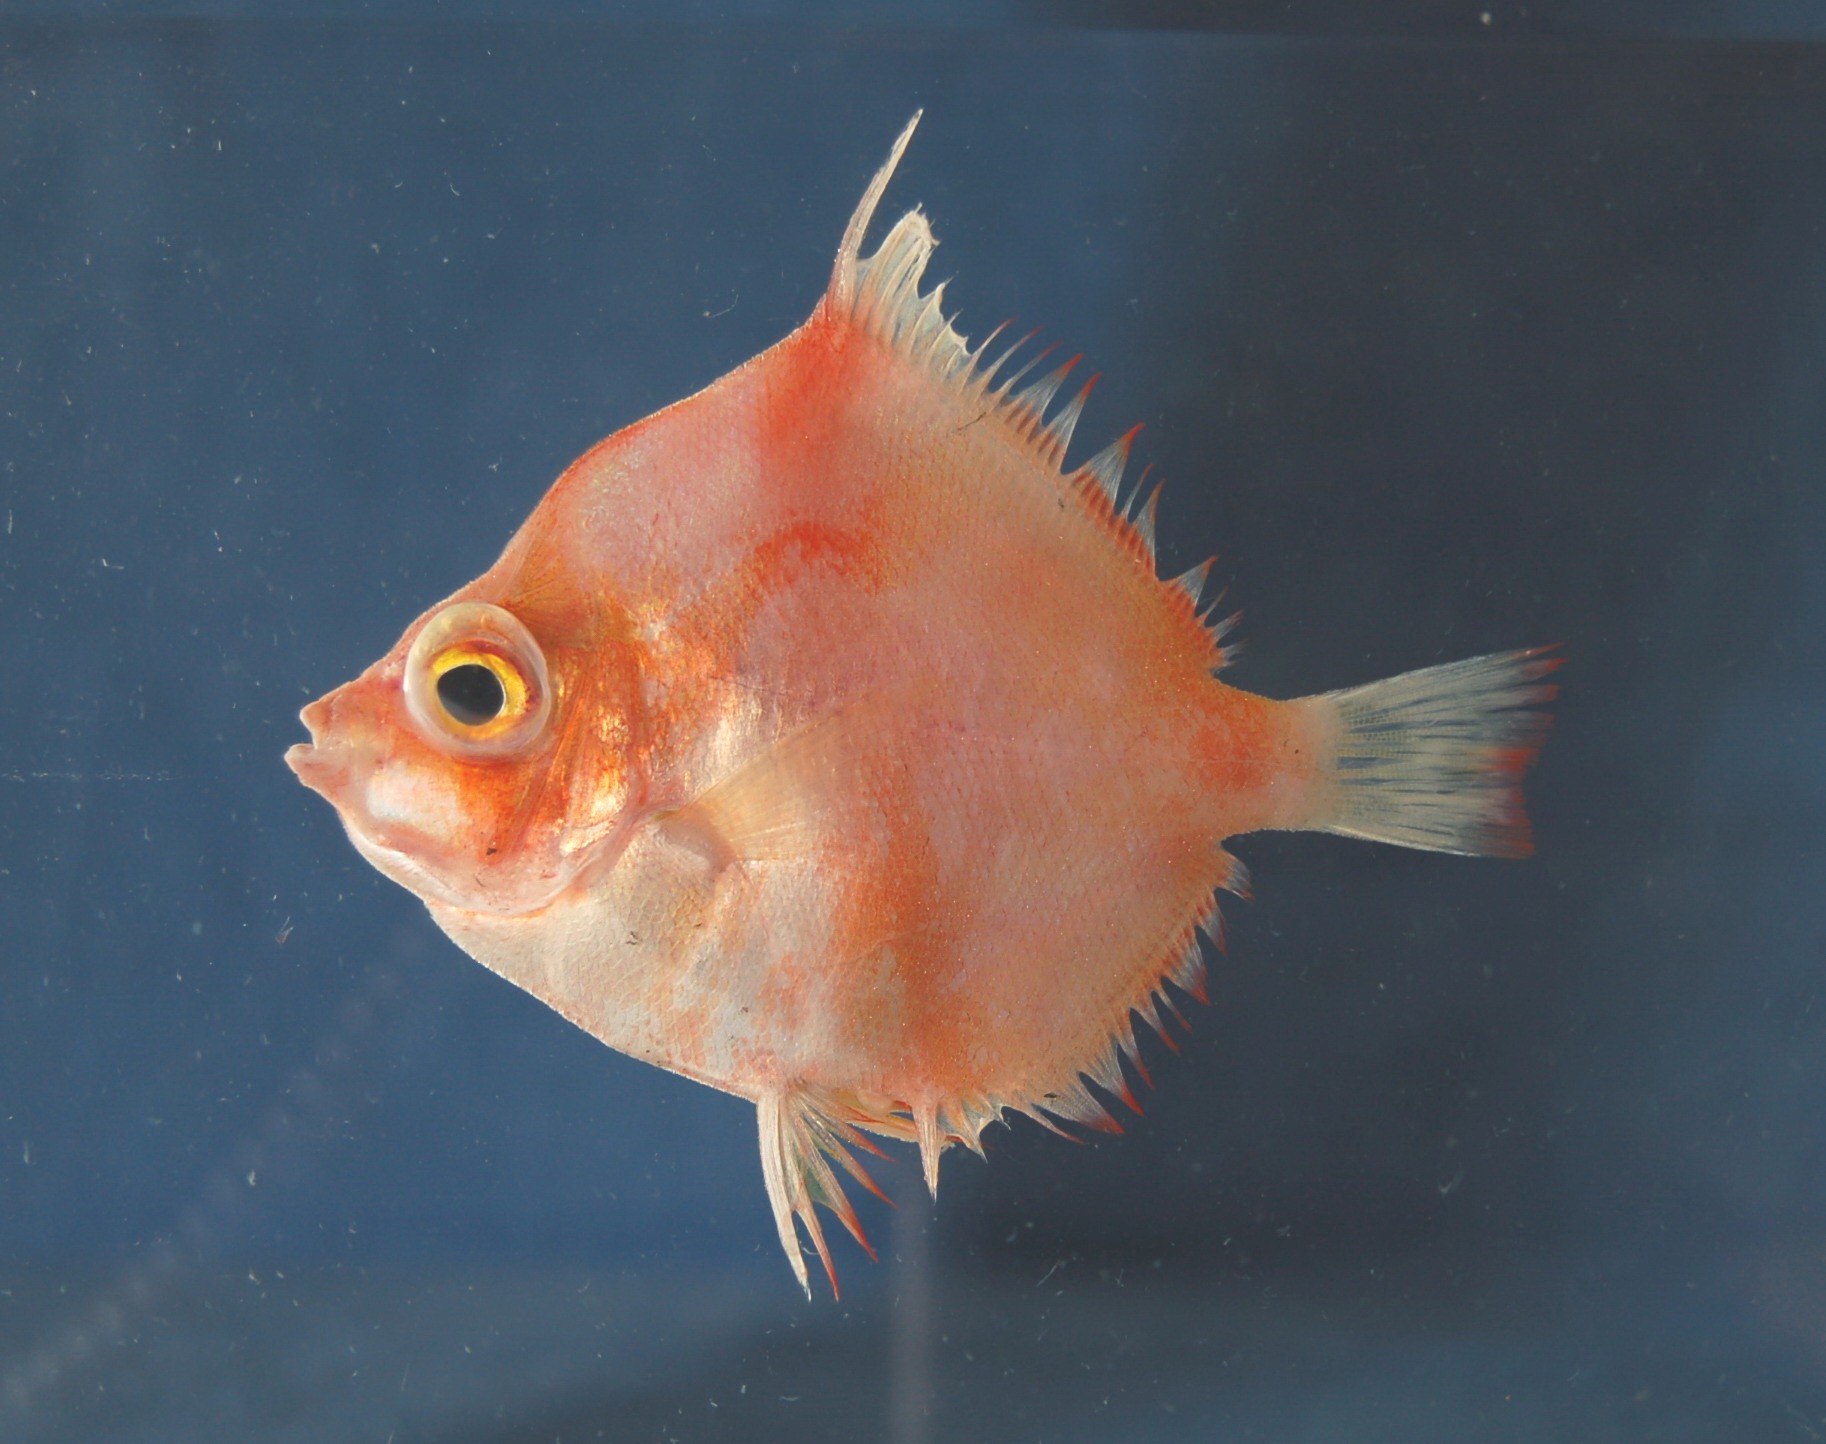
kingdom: Animalia
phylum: Chordata
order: Perciformes
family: Caproidae
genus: Antigonia
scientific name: Antigonia rubescens
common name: Indo-pacific boarfish
